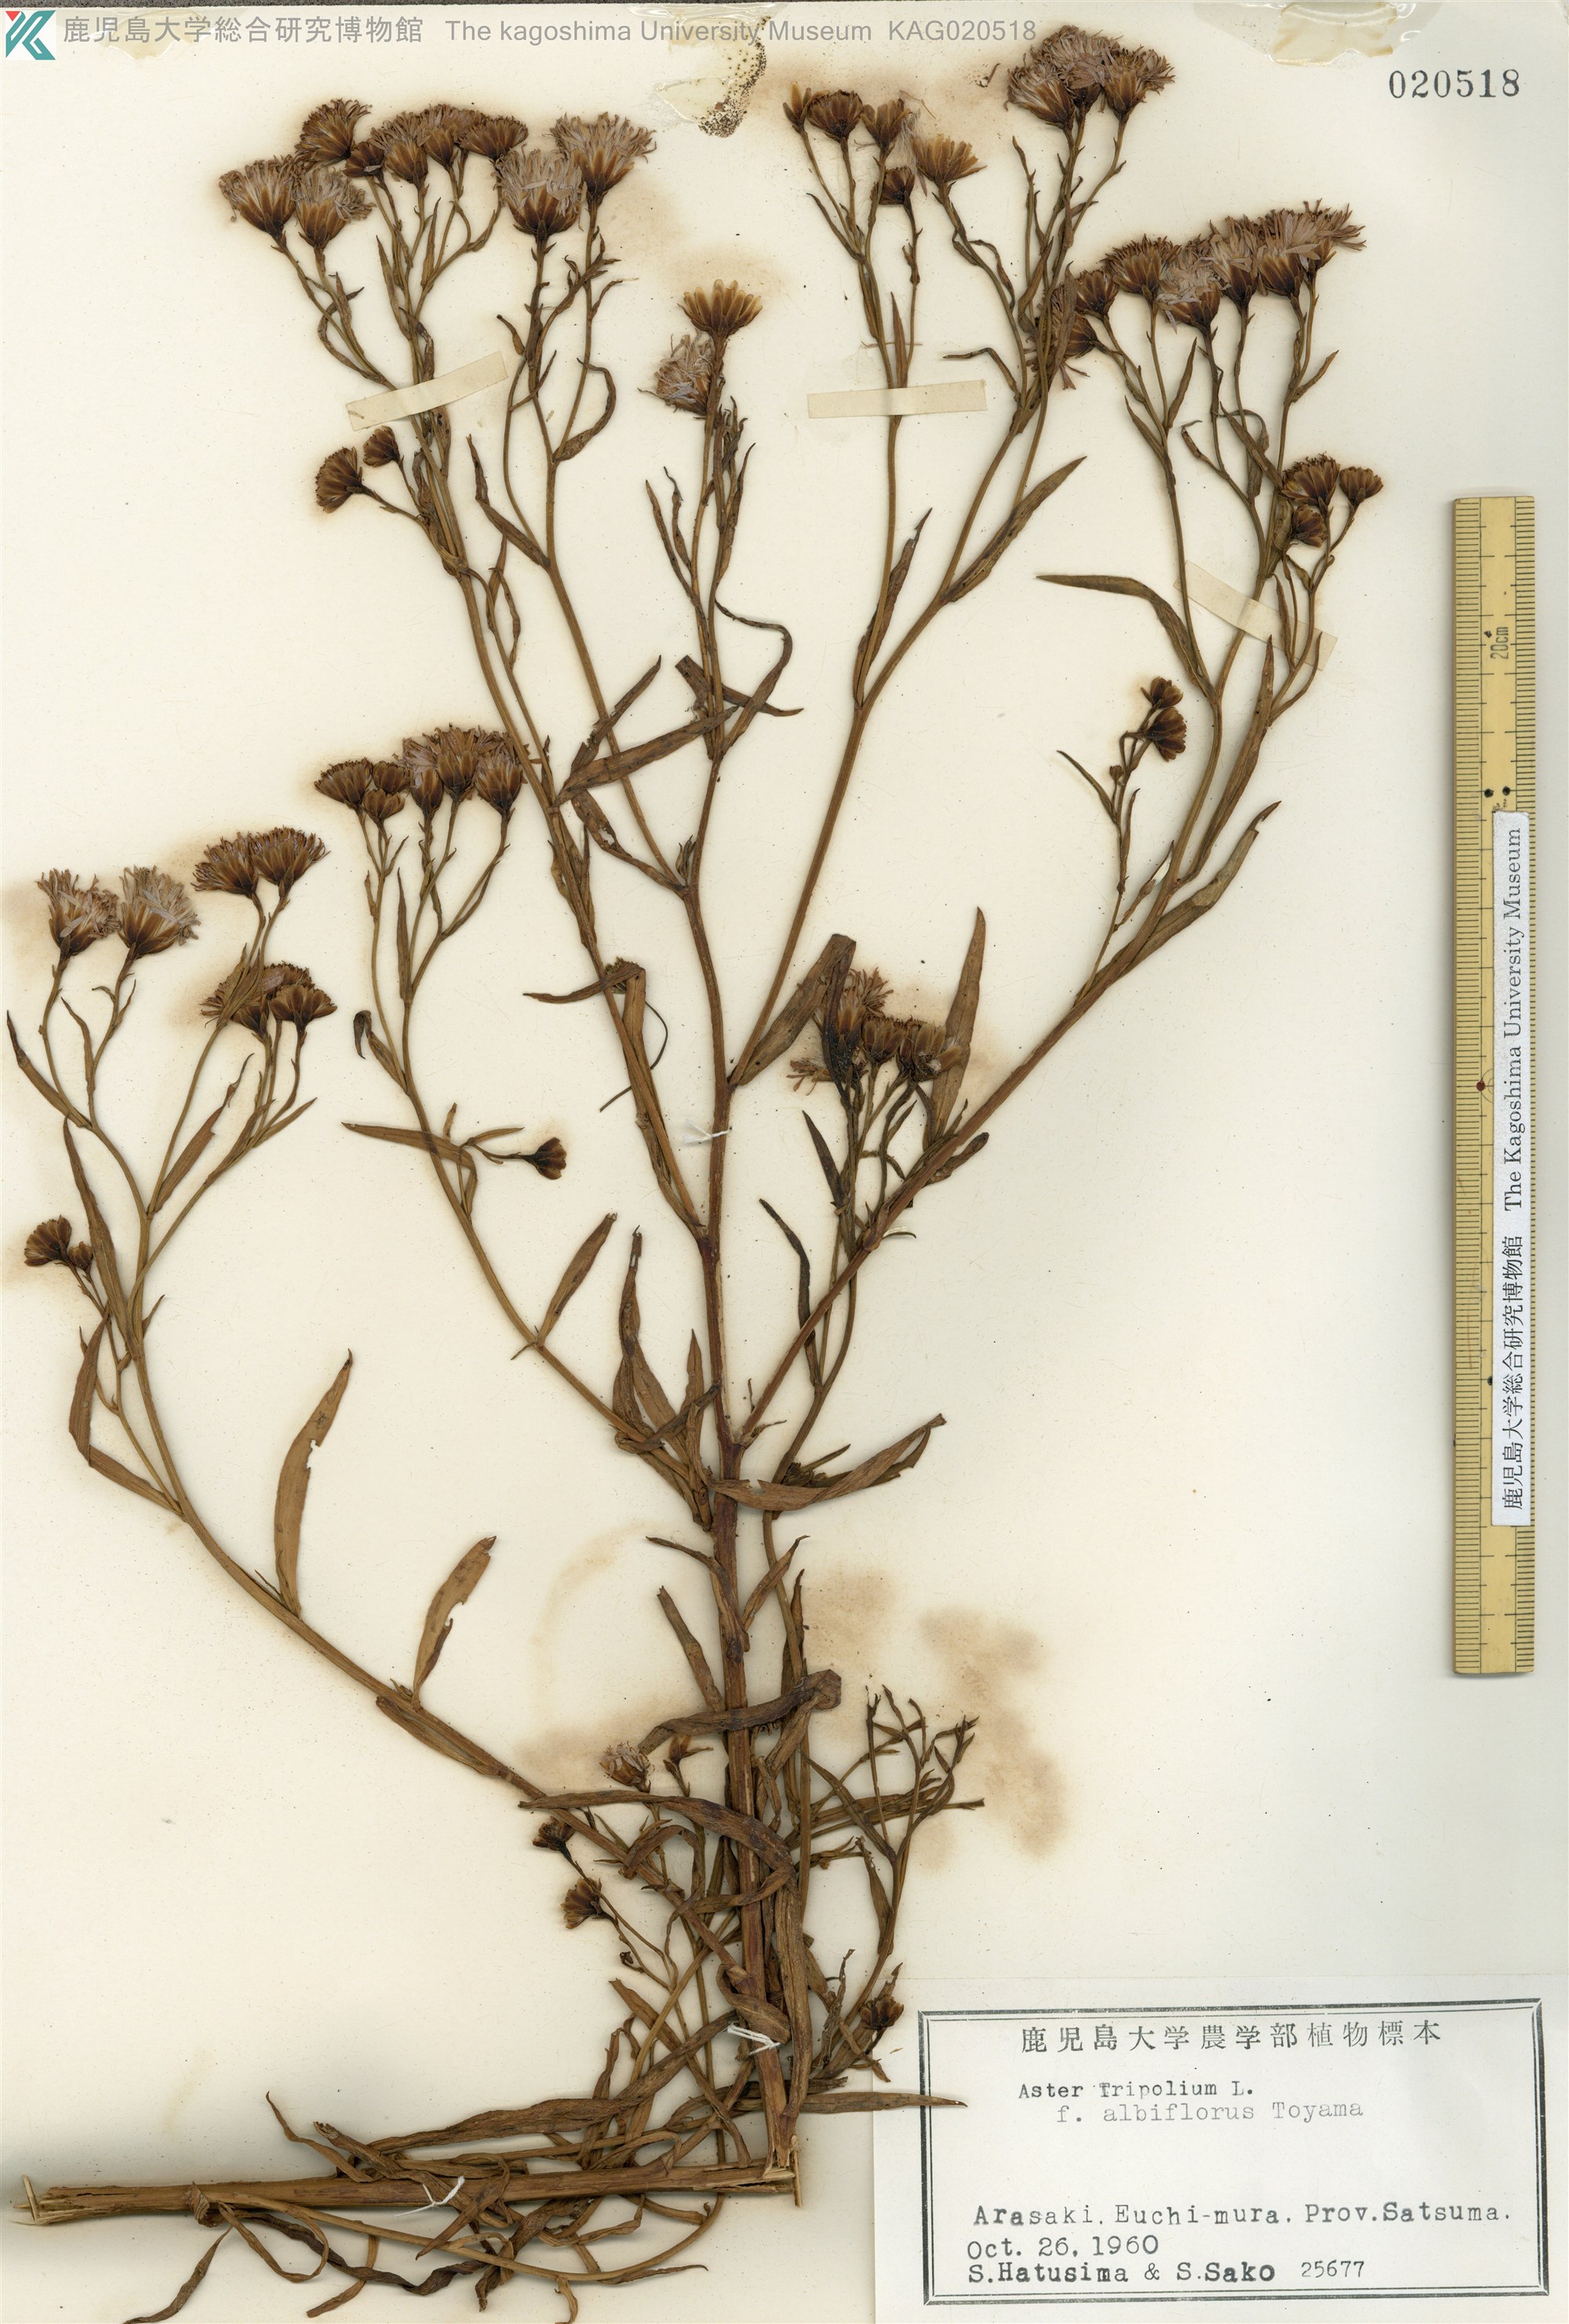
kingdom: Plantae
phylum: Tracheophyta
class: Magnoliopsida
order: Asterales
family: Asteraceae
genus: Tripolium
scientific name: Tripolium pannonicum
